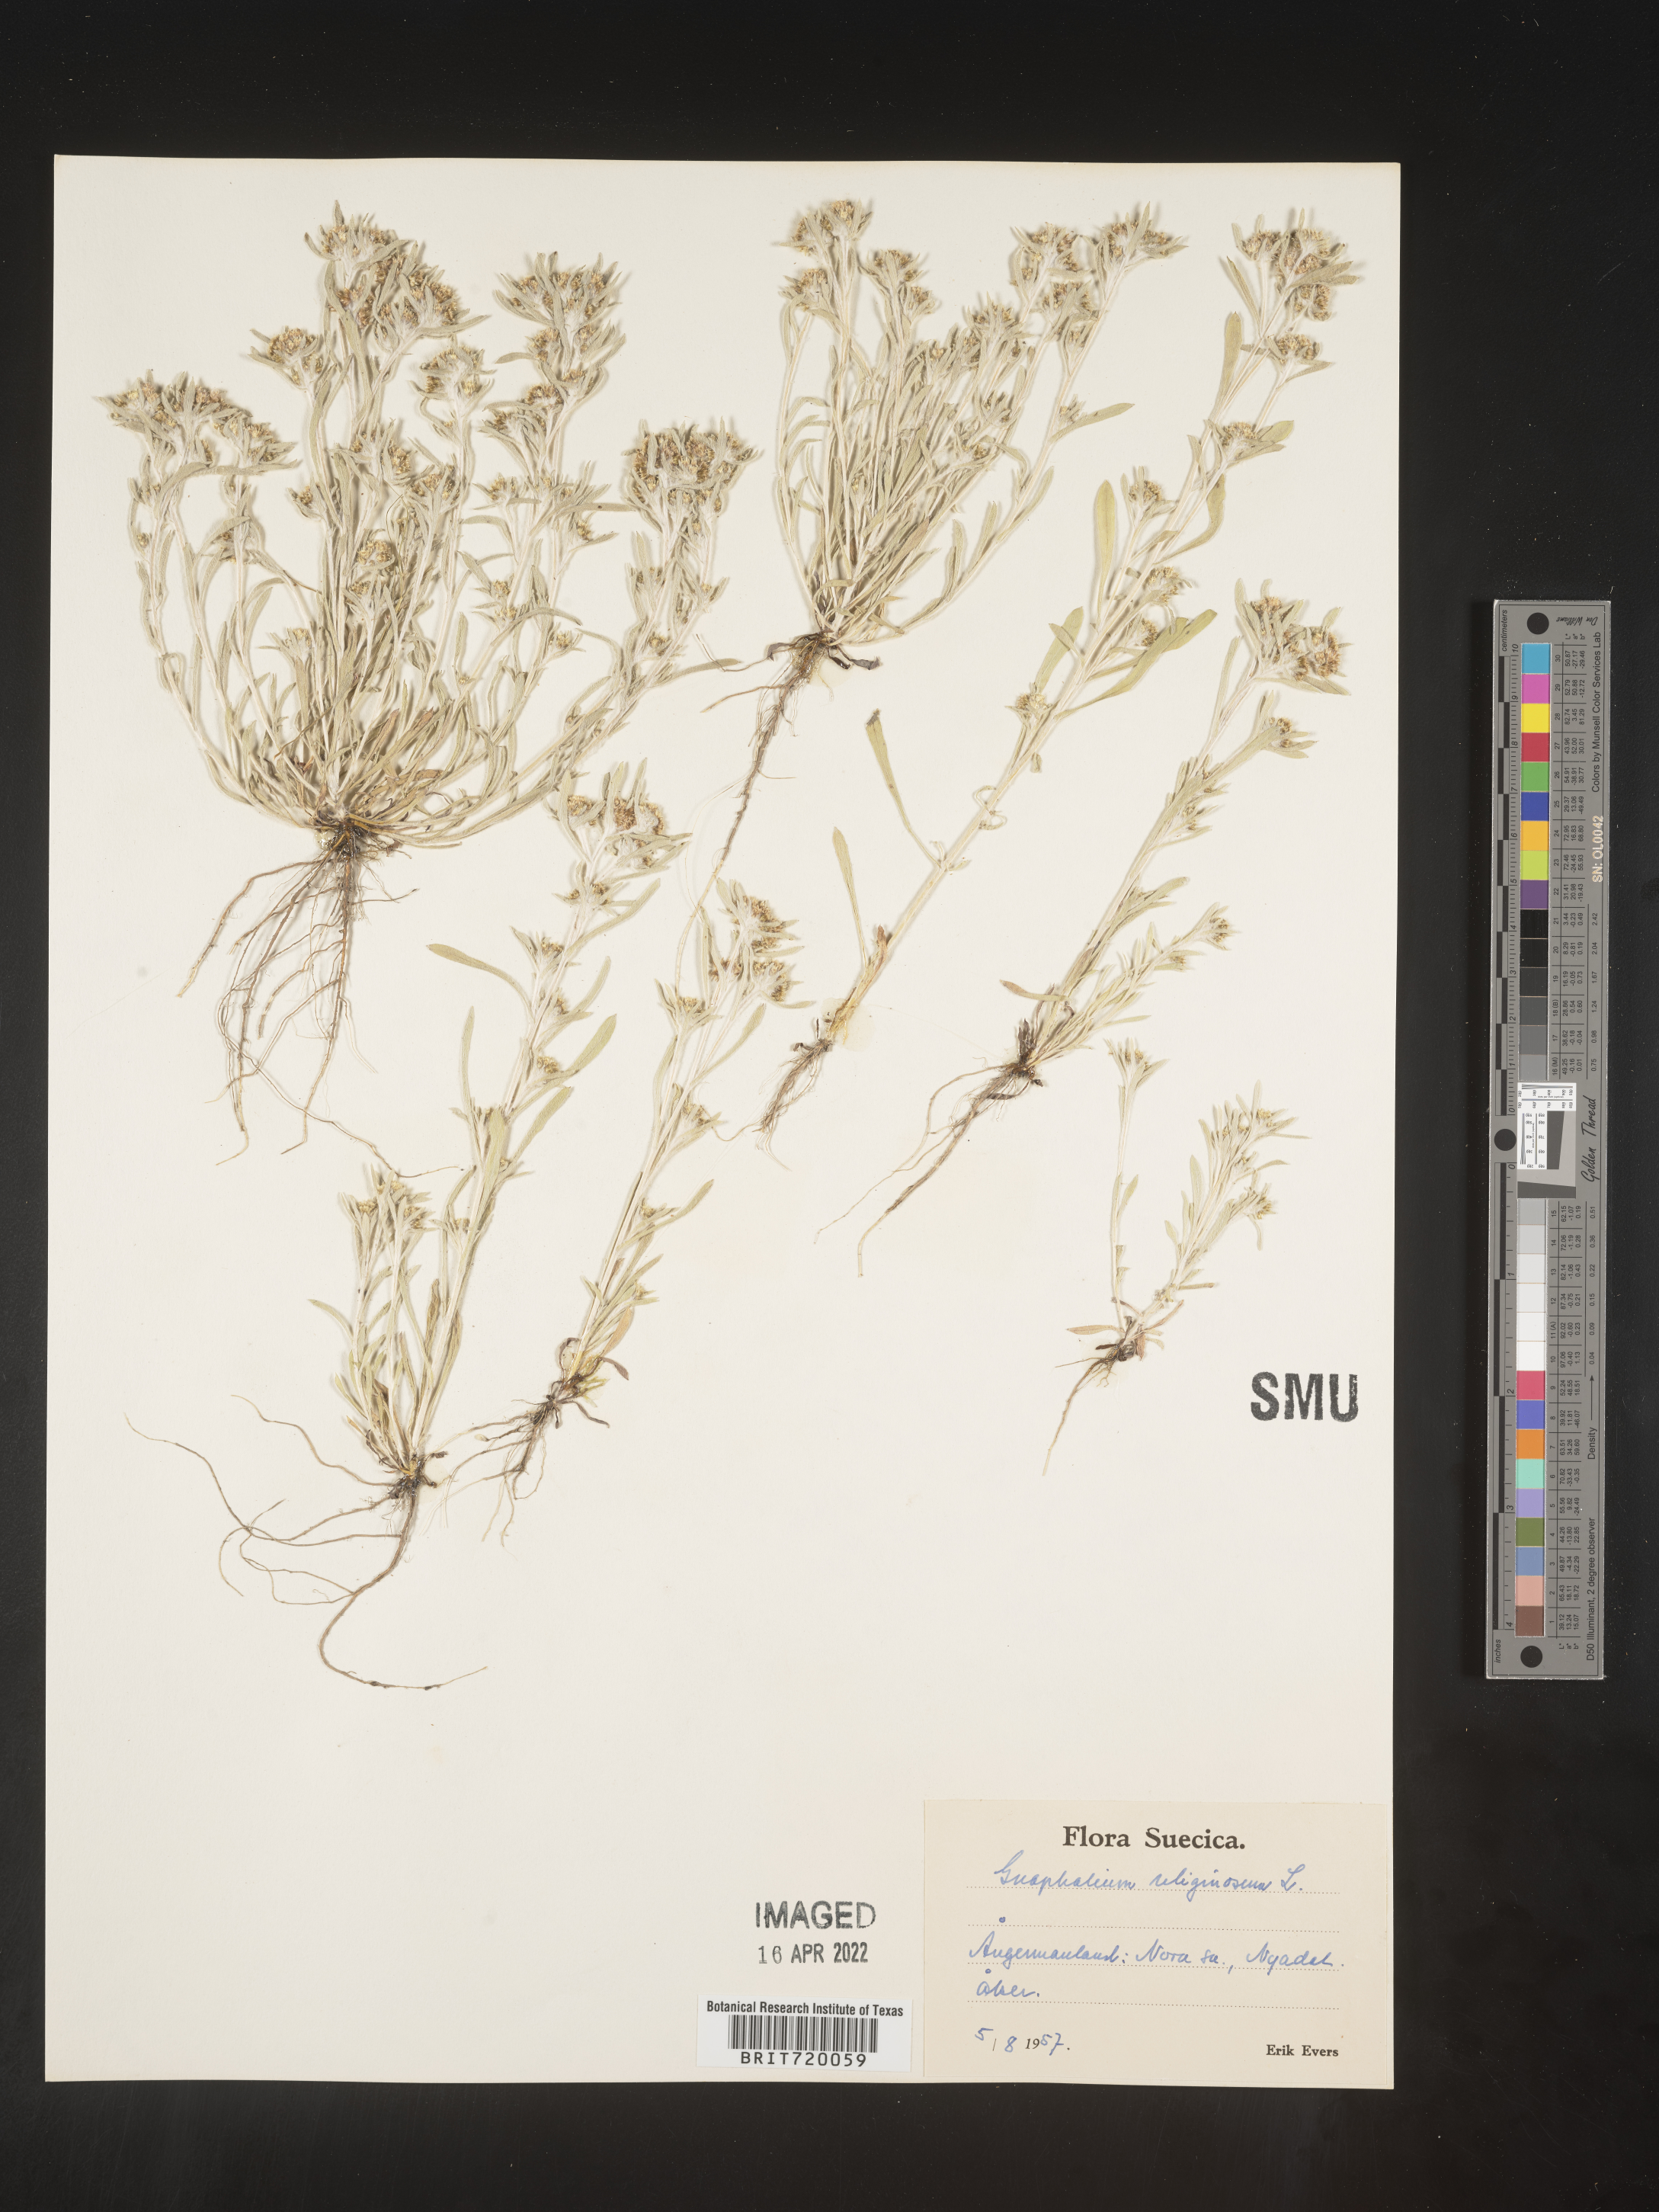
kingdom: Plantae
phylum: Tracheophyta
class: Magnoliopsida
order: Asterales
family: Asteraceae
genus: Gnaphalium
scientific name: Gnaphalium
